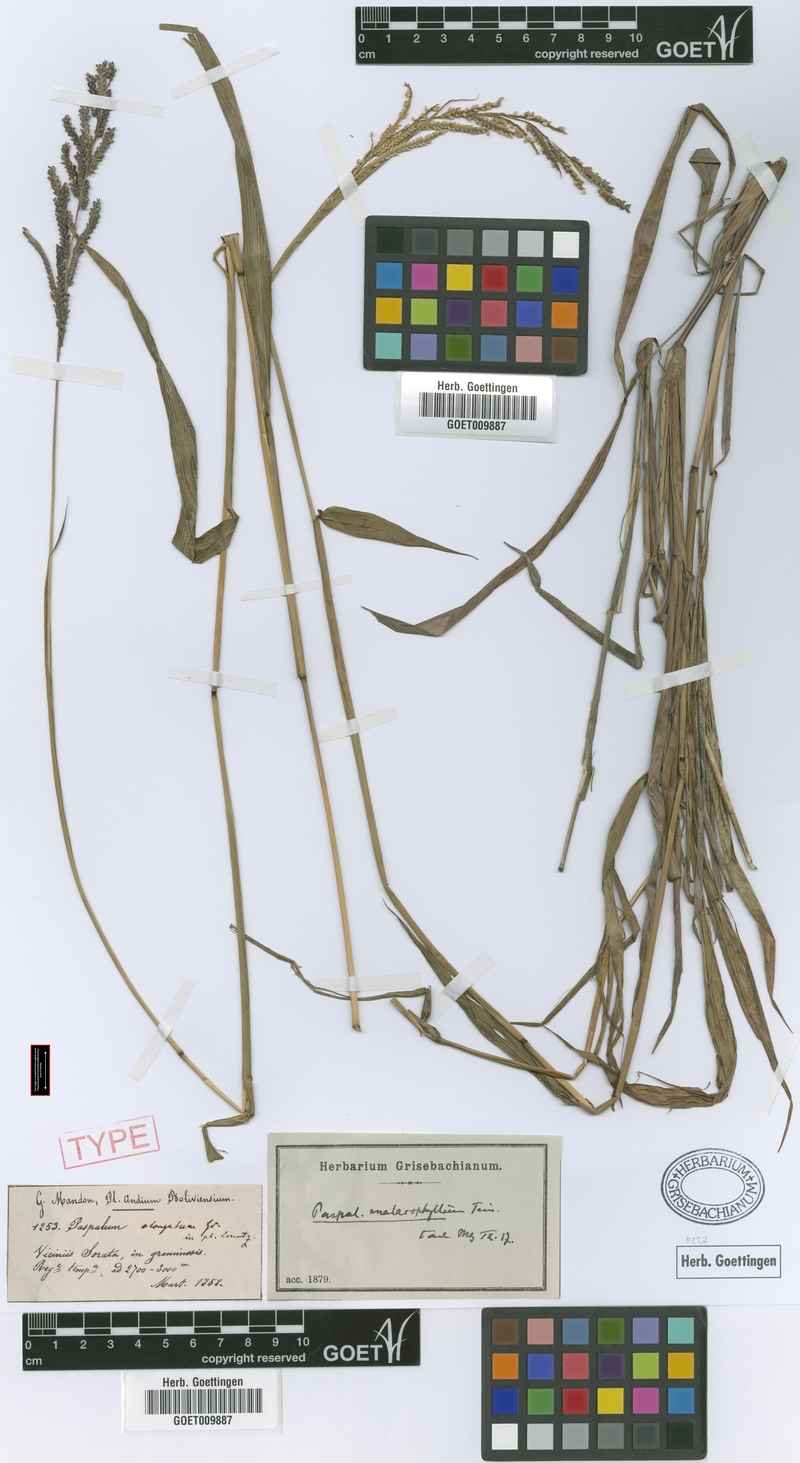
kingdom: Plantae
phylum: Tracheophyta
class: Liliopsida
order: Poales
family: Poaceae
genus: Paspalum
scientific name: Paspalum malacophyllum
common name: Ribbed paspalum
